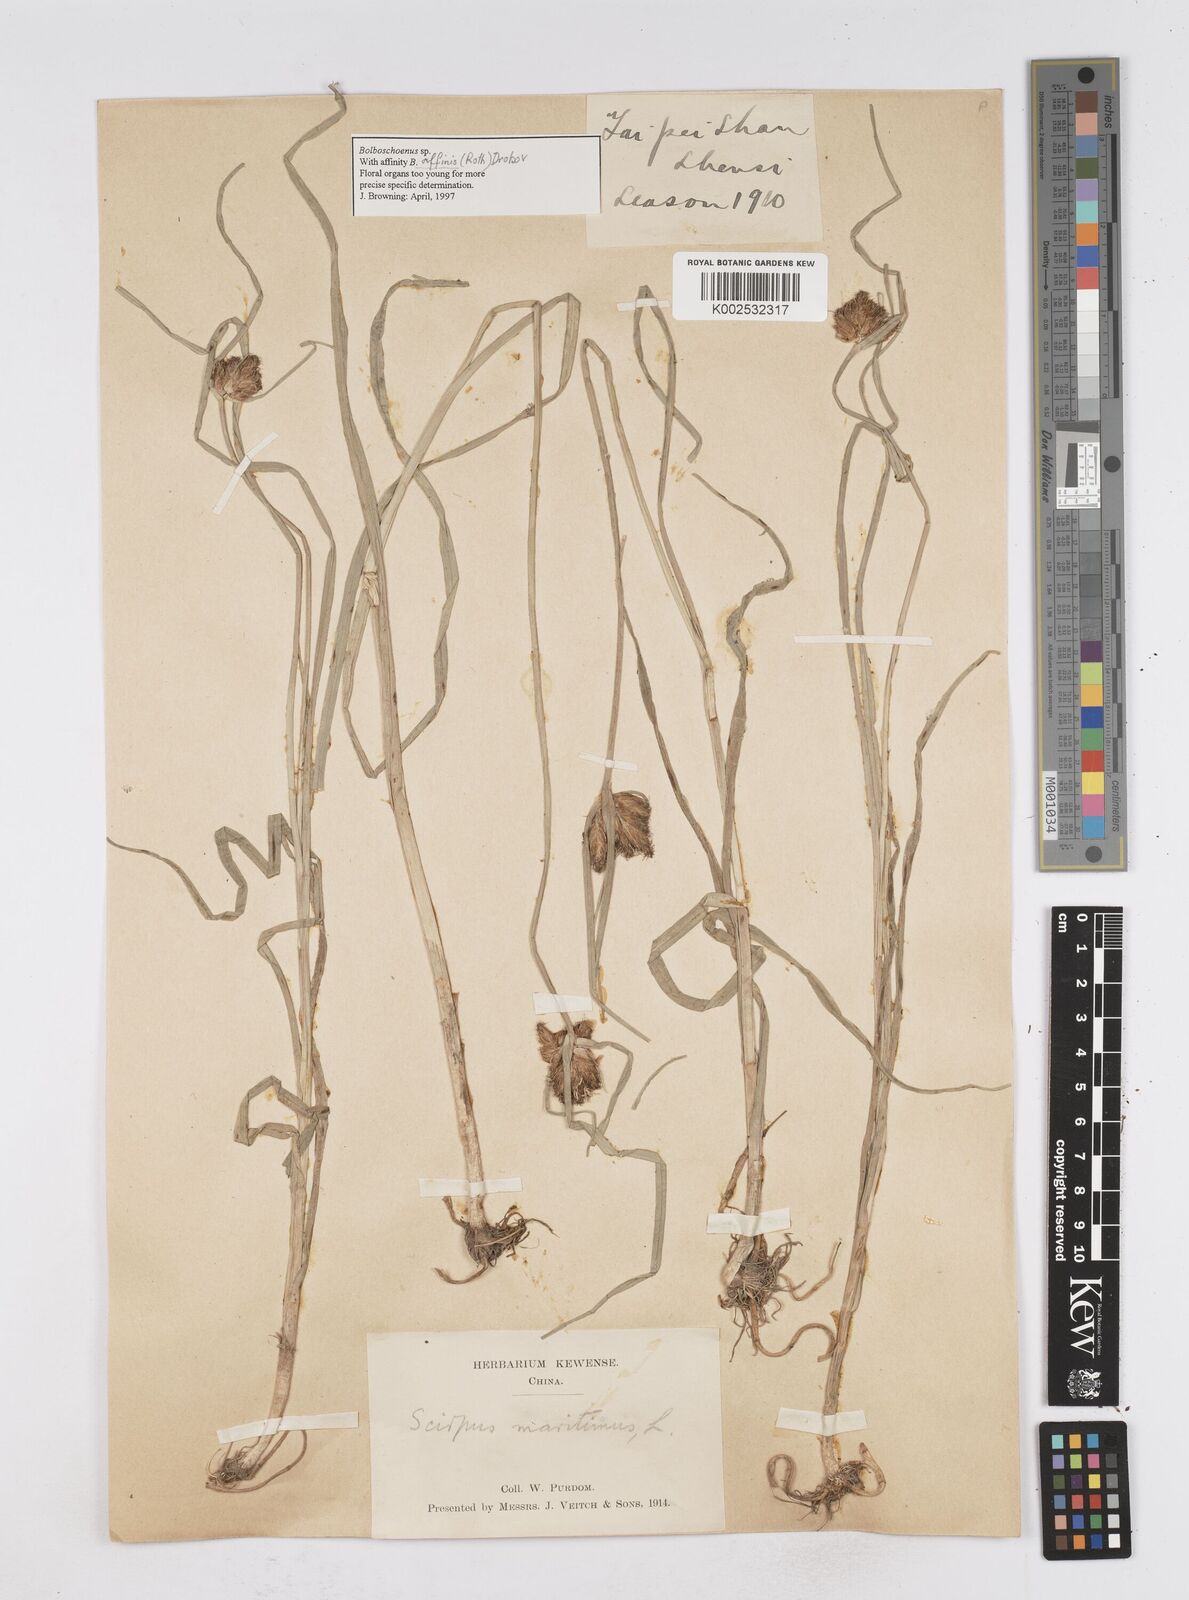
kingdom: Plantae
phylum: Tracheophyta
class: Liliopsida
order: Poales
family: Cyperaceae
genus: Bolboschoenus
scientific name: Bolboschoenus maritimus
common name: Sea club-rush
